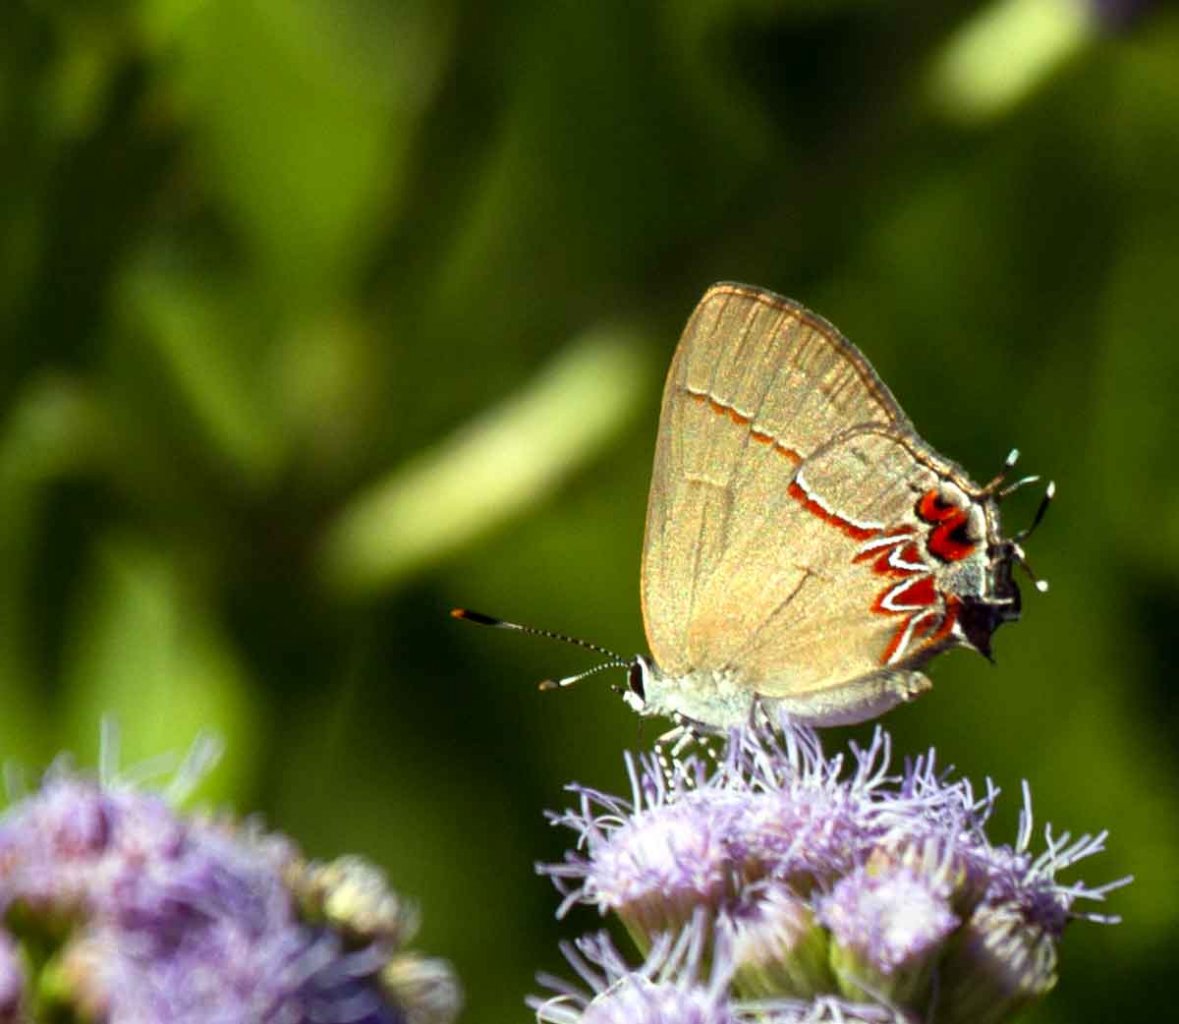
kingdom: Animalia
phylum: Arthropoda
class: Insecta
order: Lepidoptera
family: Lycaenidae
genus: Calycopis
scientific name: Calycopis isobeon
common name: Dusky-blue Groundstreak
